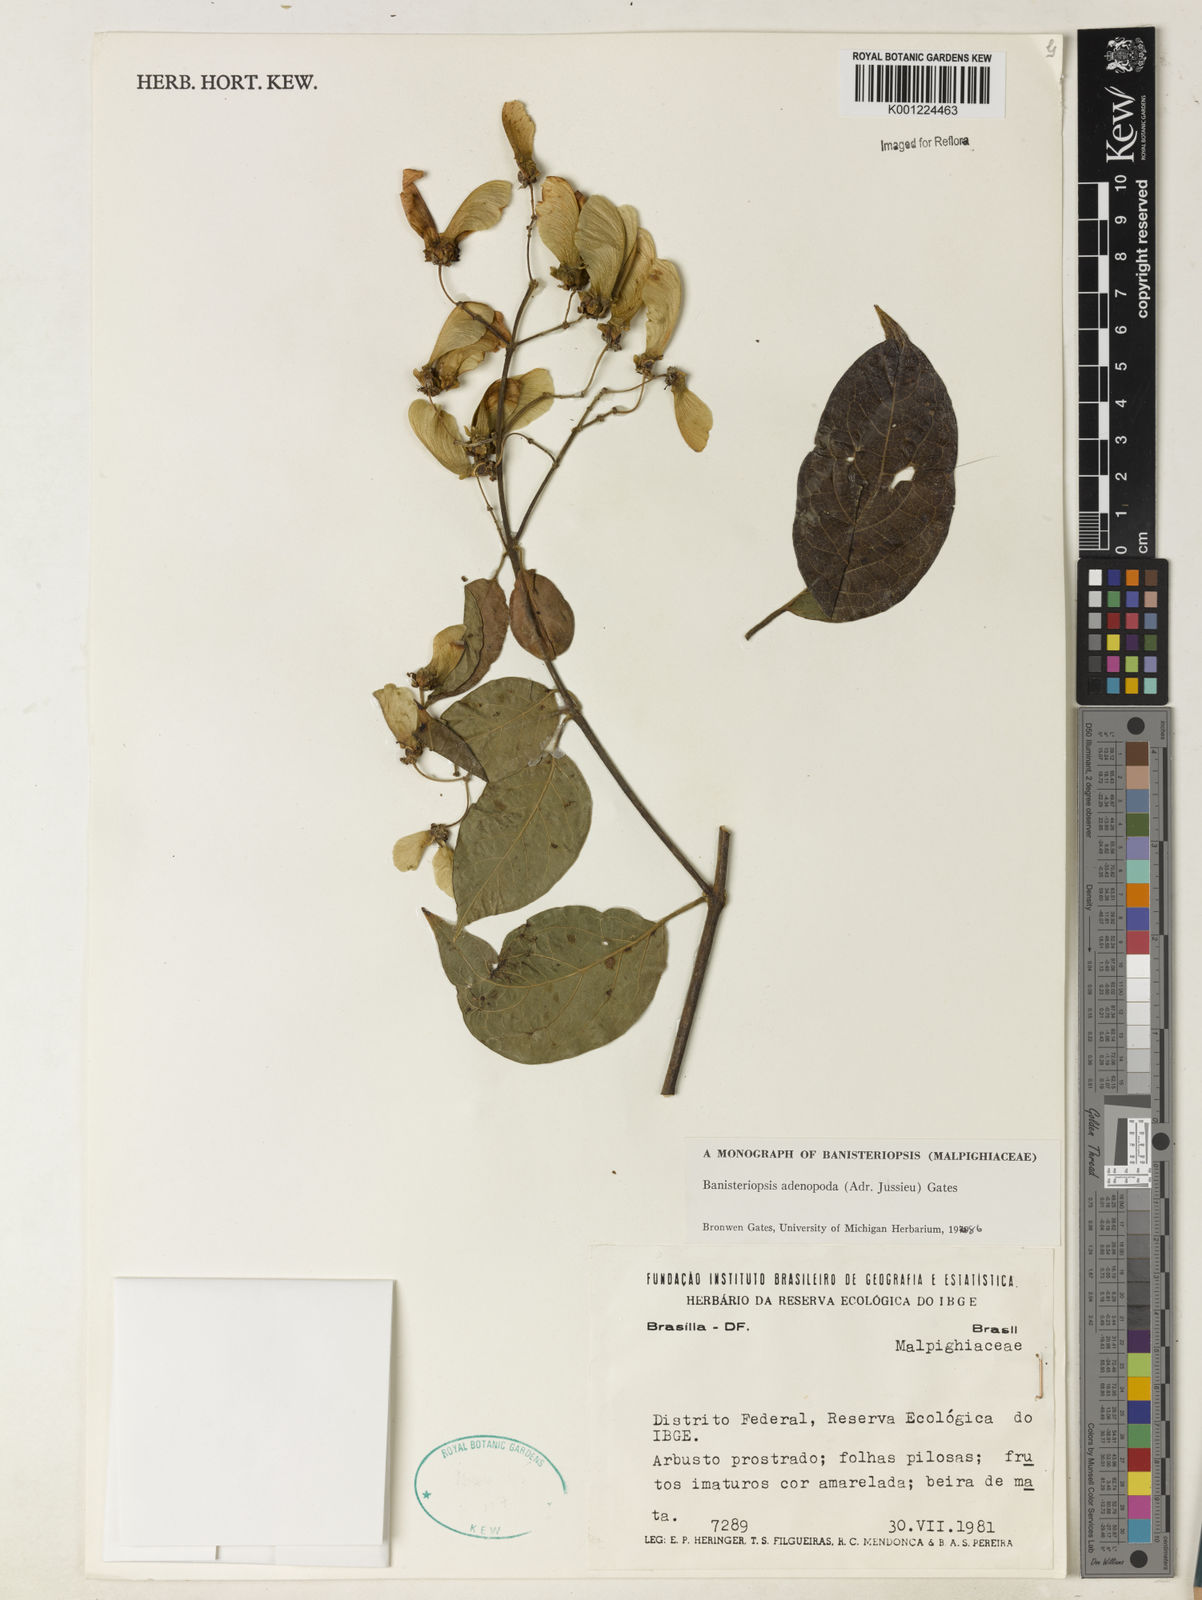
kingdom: Plantae
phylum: Tracheophyta
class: Magnoliopsida
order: Malpighiales
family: Malpighiaceae
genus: Banisteriopsis
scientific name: Banisteriopsis adenopoda
